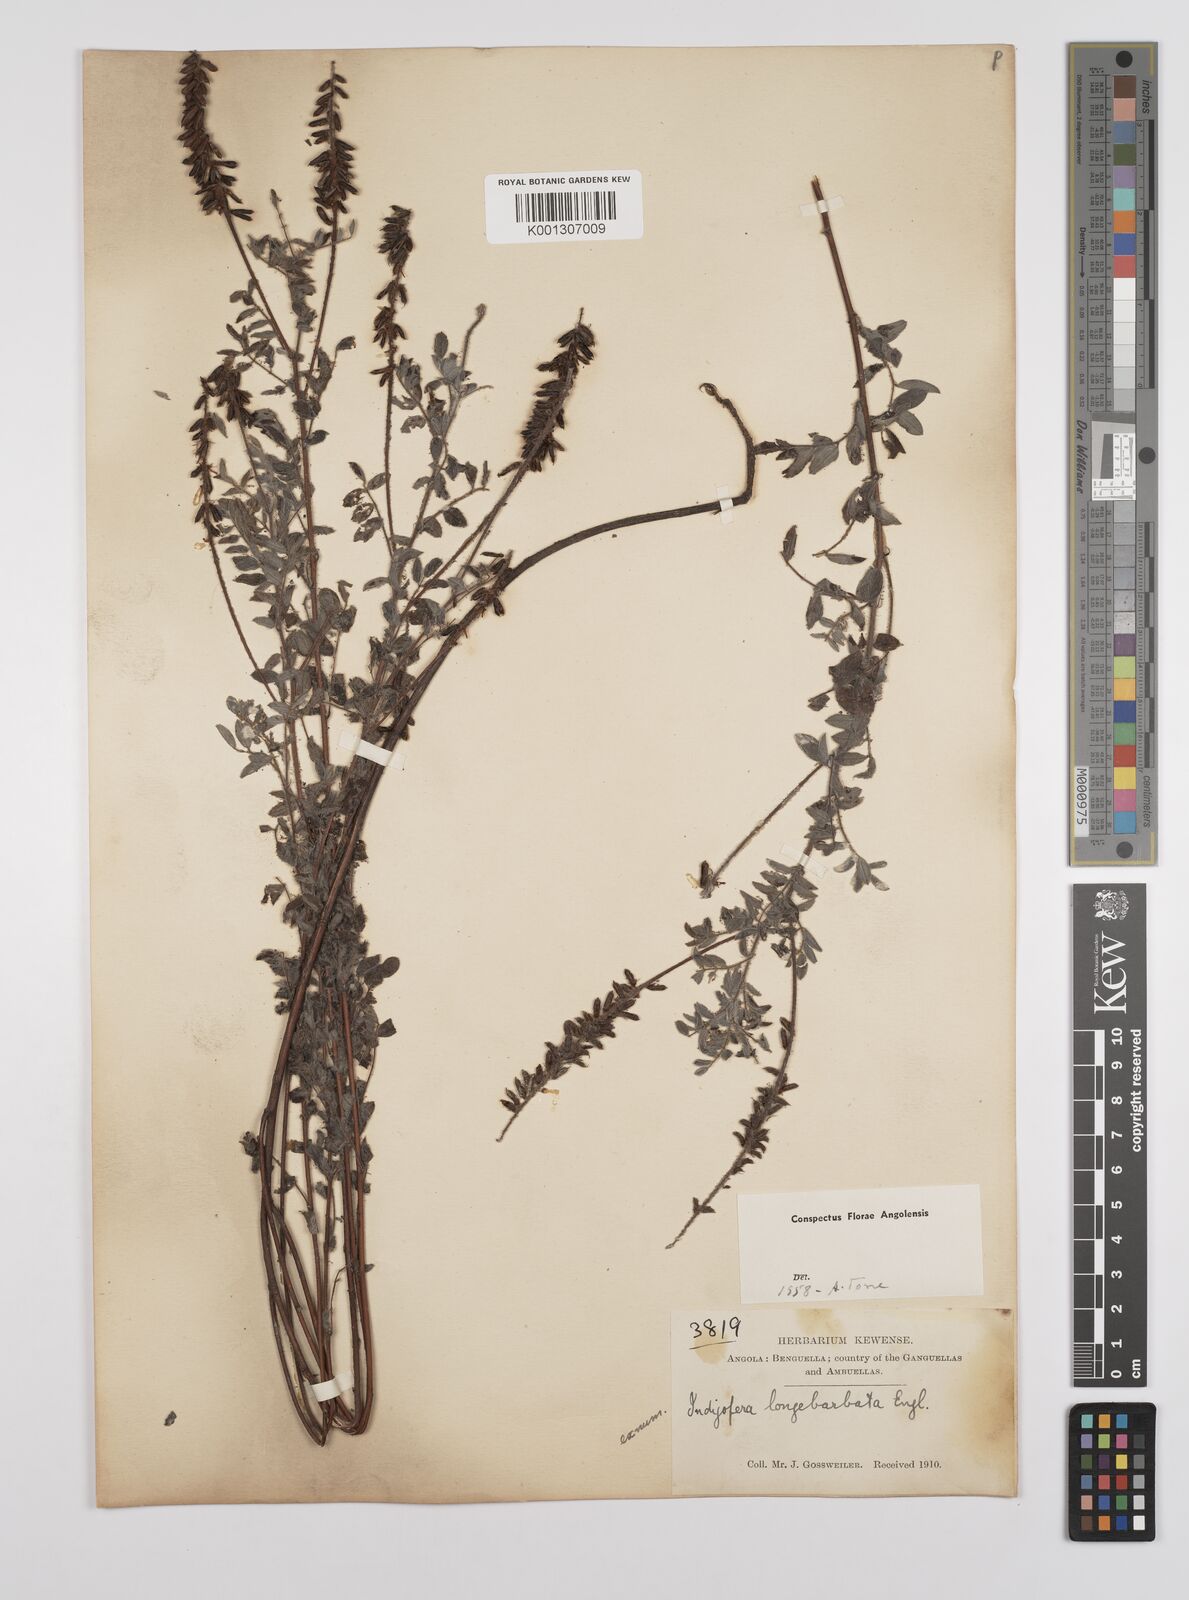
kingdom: Plantae
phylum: Tracheophyta
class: Magnoliopsida
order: Fabales
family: Fabaceae
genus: Indigofera
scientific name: Indigofera fuscobarbata
